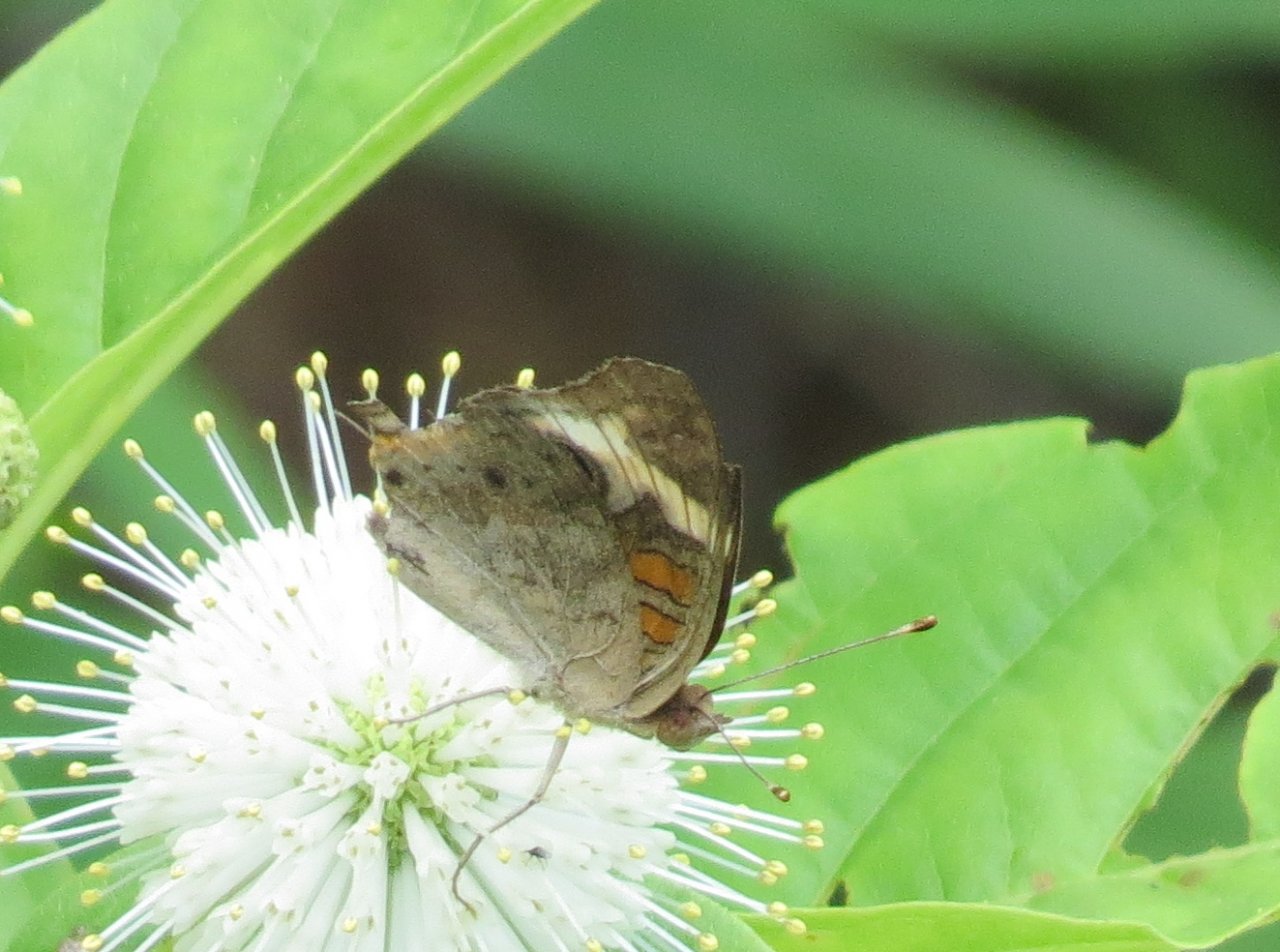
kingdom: Animalia
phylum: Arthropoda
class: Insecta
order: Lepidoptera
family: Nymphalidae
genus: Junonia
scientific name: Junonia coenia
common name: Common Buckeye
